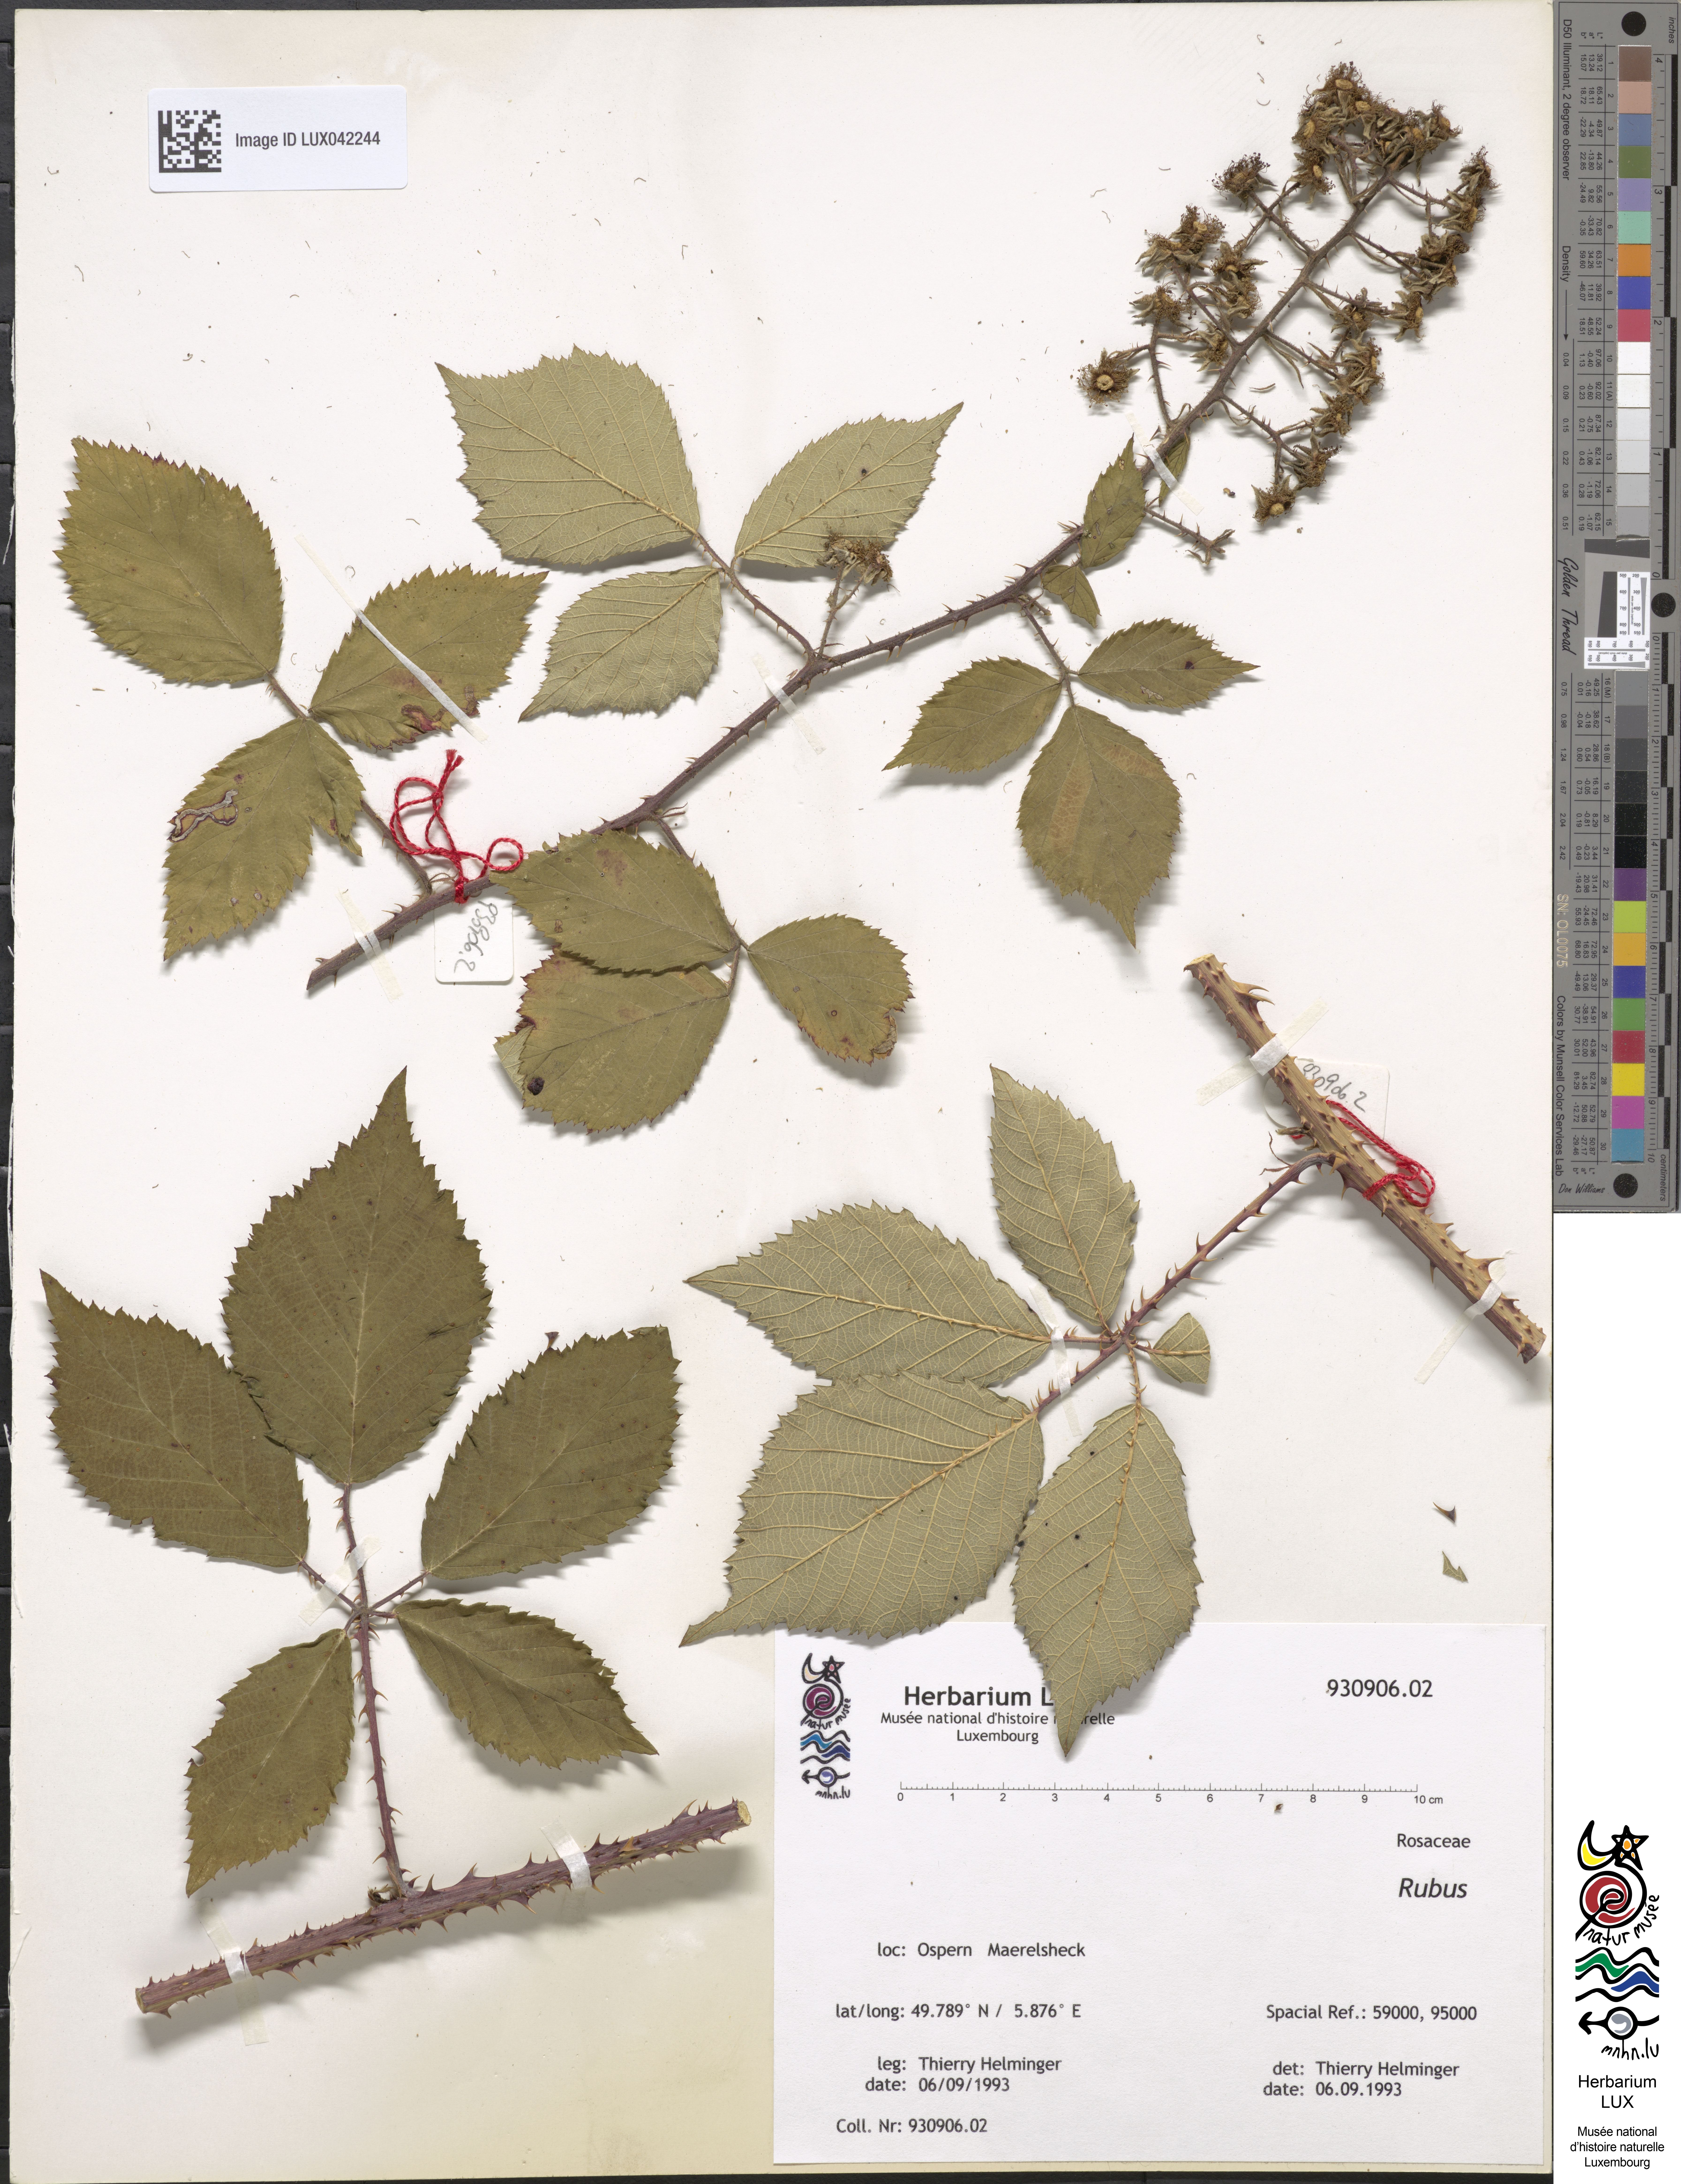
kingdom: Plantae
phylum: Tracheophyta
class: Magnoliopsida
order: Rosales
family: Rosaceae
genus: Rubus
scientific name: Rubus
